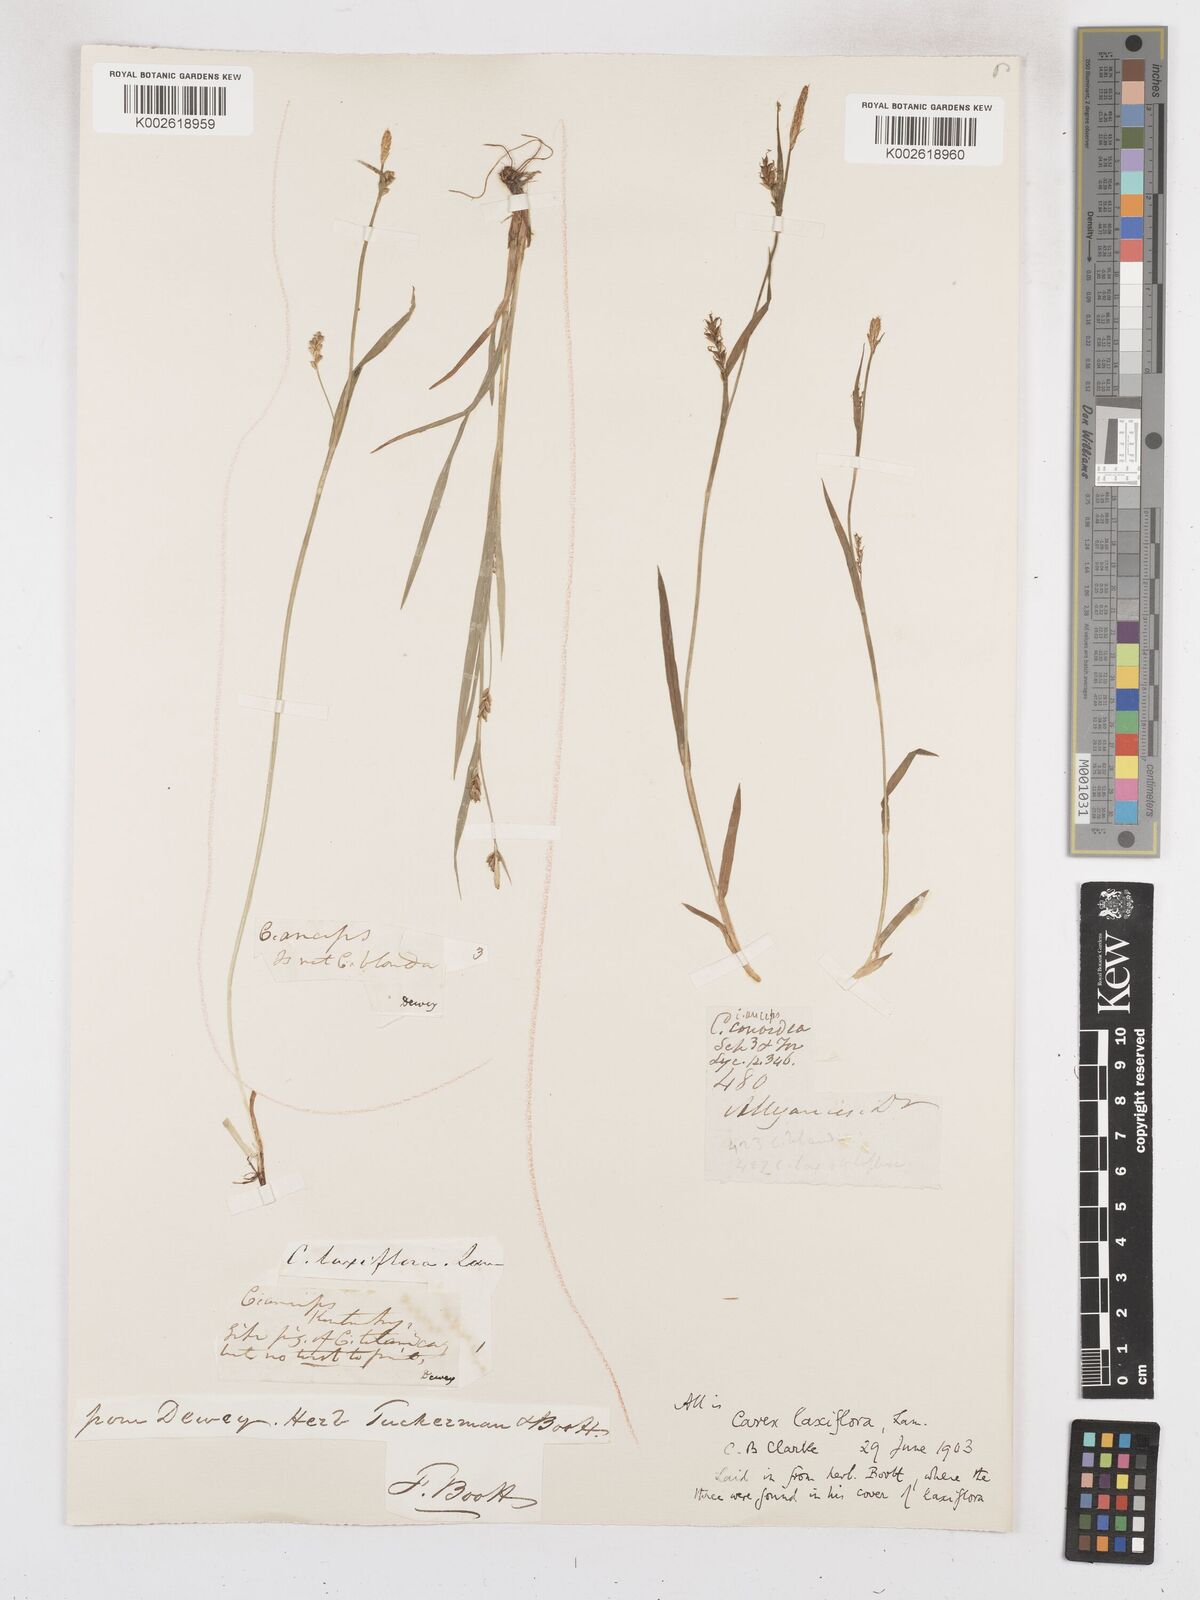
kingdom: Plantae
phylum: Tracheophyta
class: Liliopsida
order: Poales
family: Cyperaceae
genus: Carex
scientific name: Carex laxiflora
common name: Beech wood sedge
